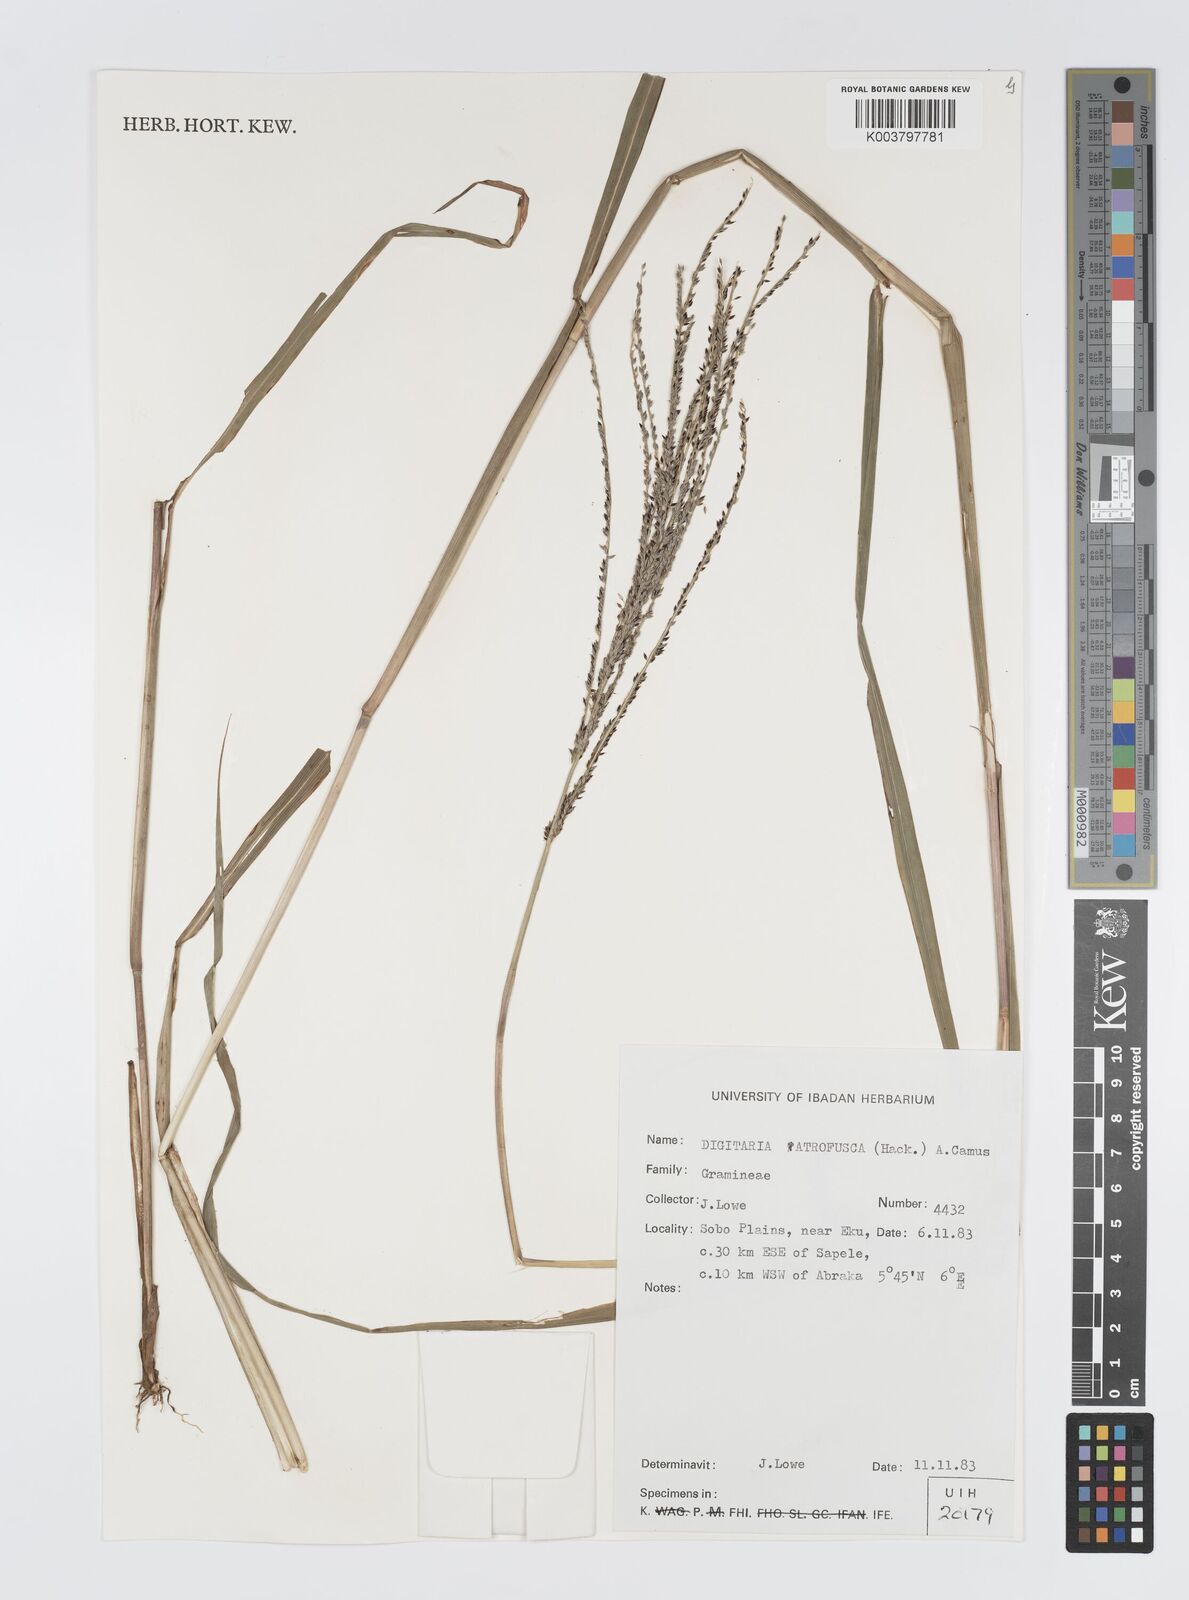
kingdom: Plantae
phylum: Tracheophyta
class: Liliopsida
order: Poales
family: Poaceae
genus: Digitaria
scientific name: Digitaria atrofusca
